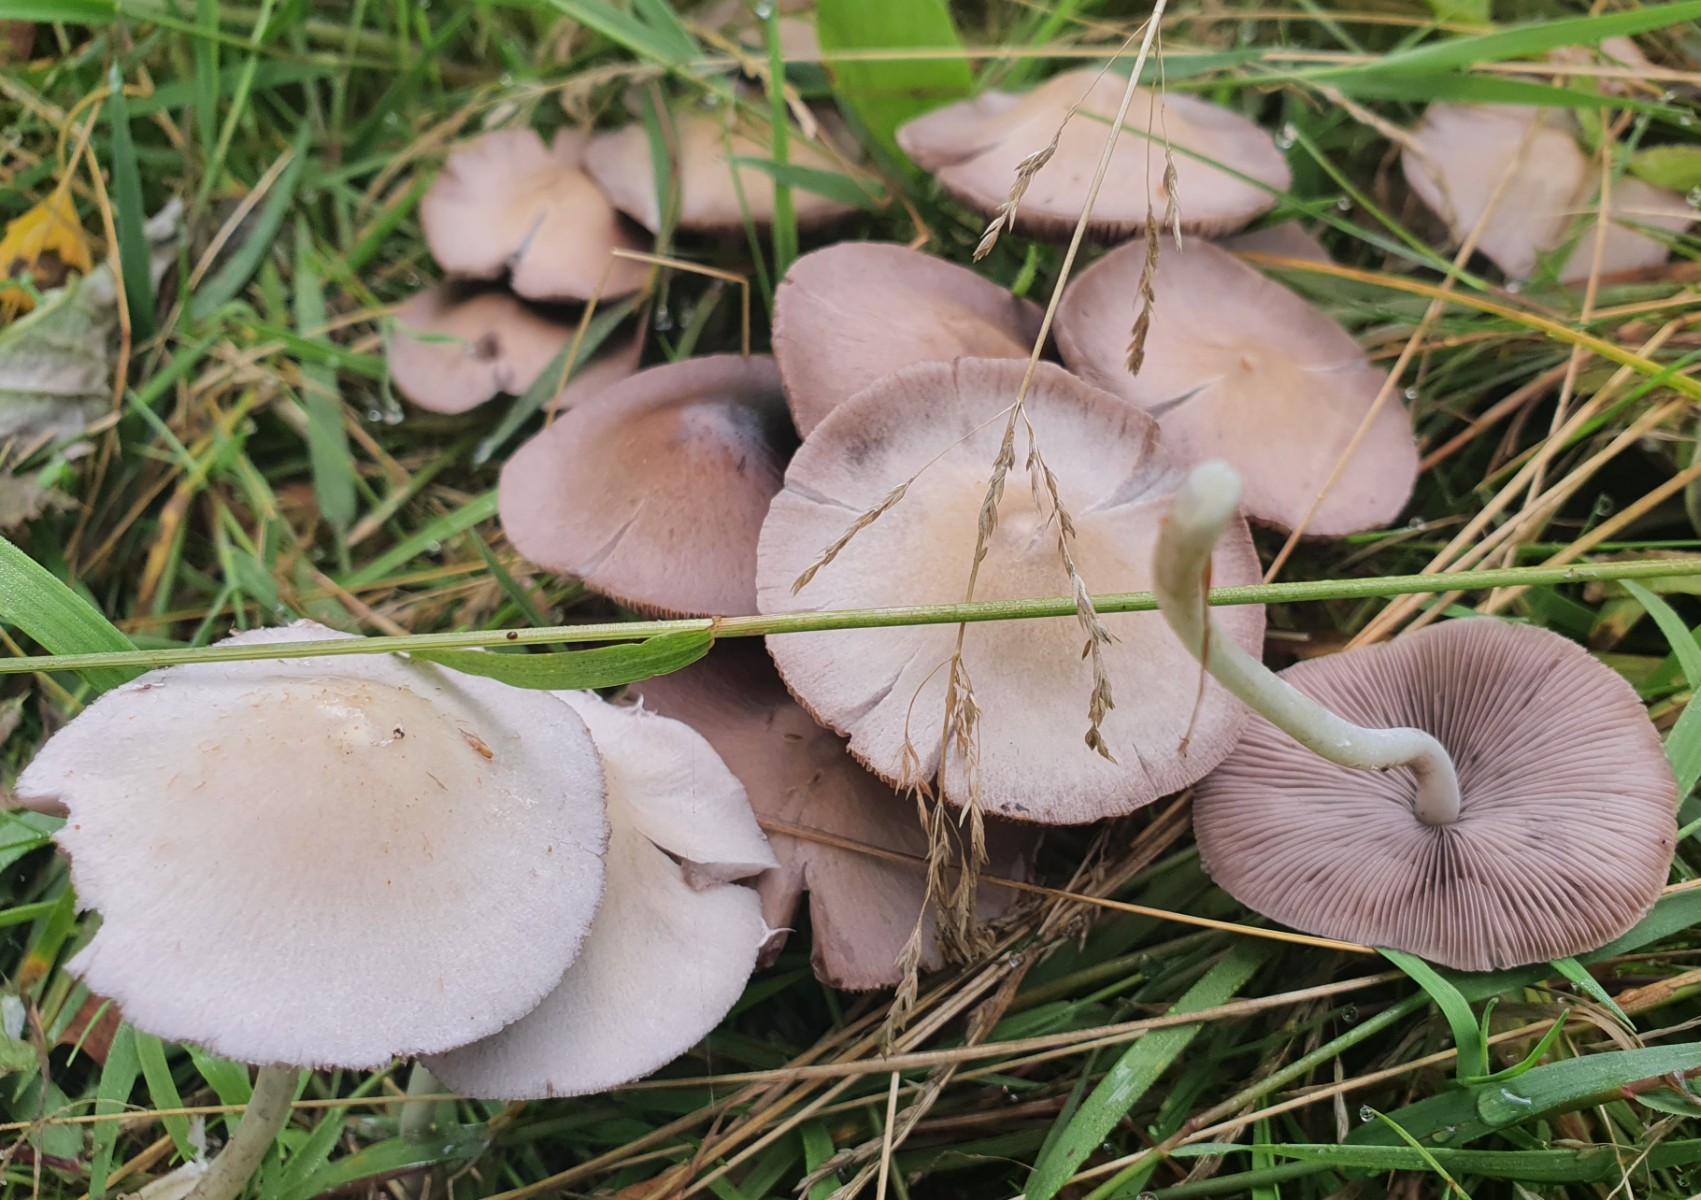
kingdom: Fungi
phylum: Basidiomycota
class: Agaricomycetes
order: Agaricales
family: Psathyrellaceae
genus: Candolleomyces
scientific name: Candolleomyces candolleanus
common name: Candolles mørkhat
